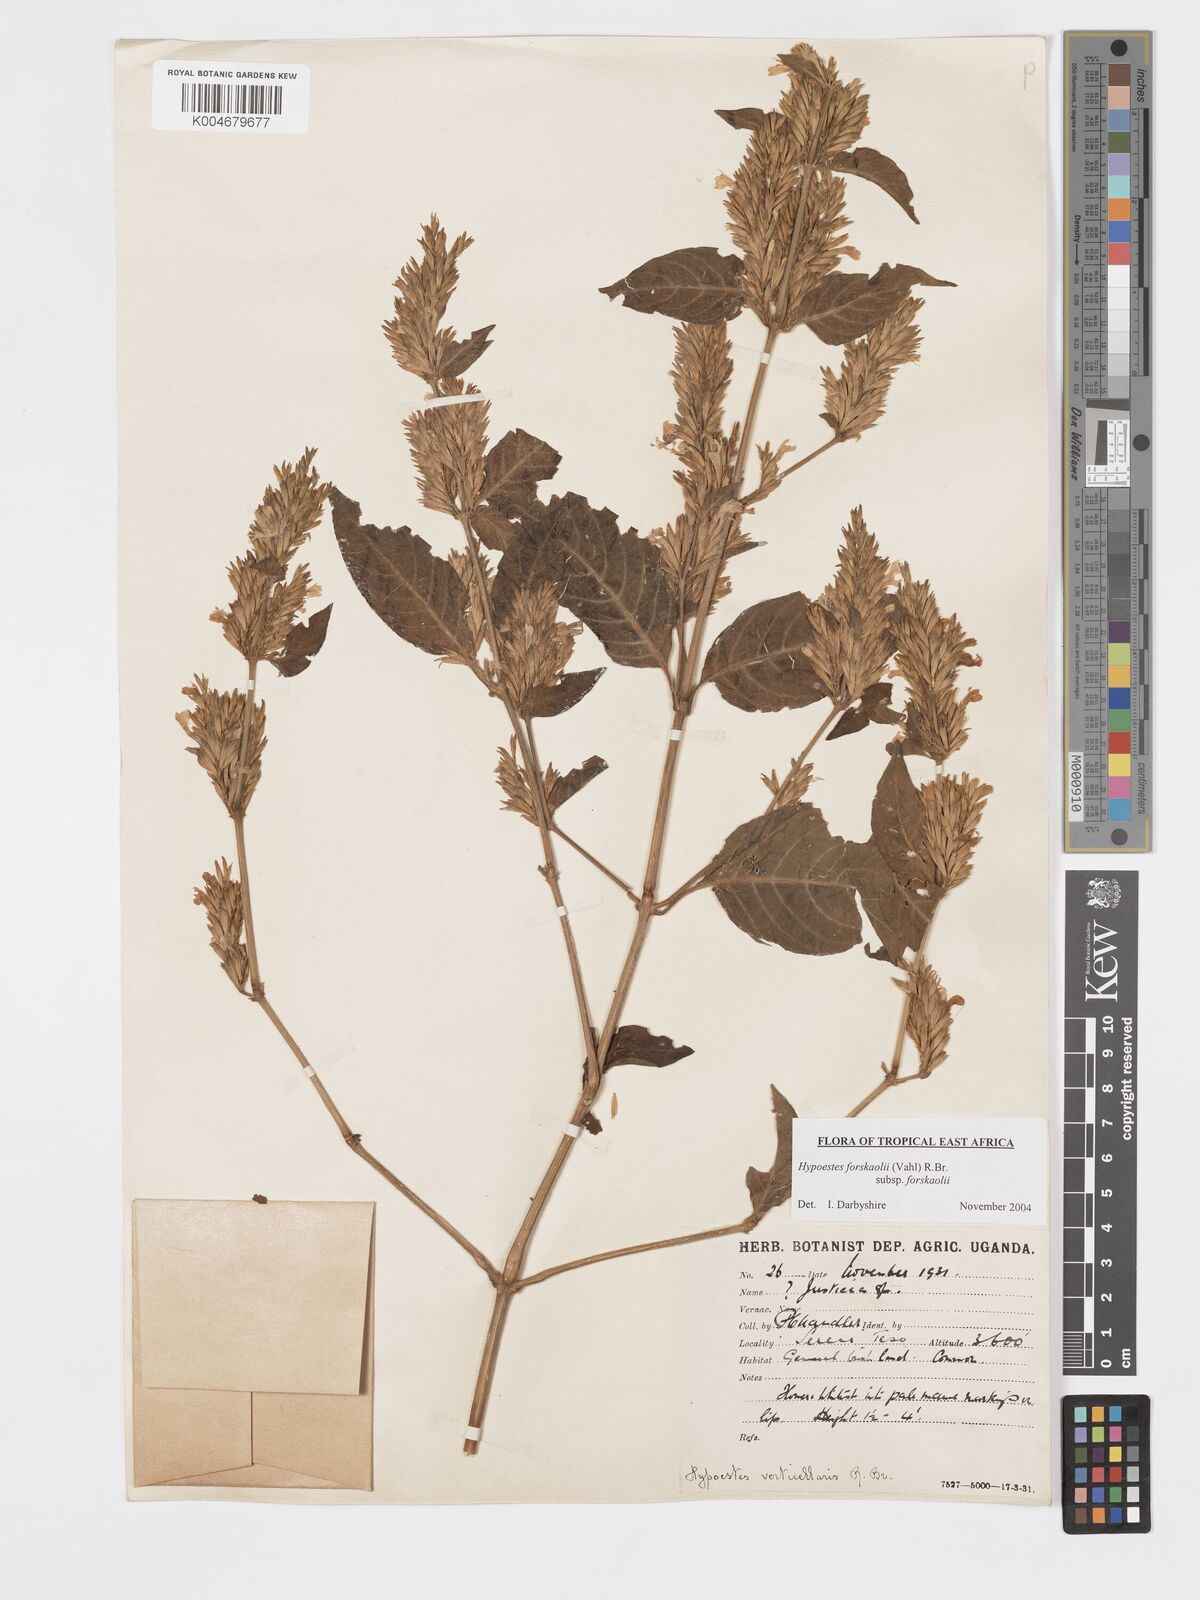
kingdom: Plantae
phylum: Tracheophyta
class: Magnoliopsida
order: Lamiales
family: Acanthaceae
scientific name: Acanthaceae
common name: Acanthaceae
